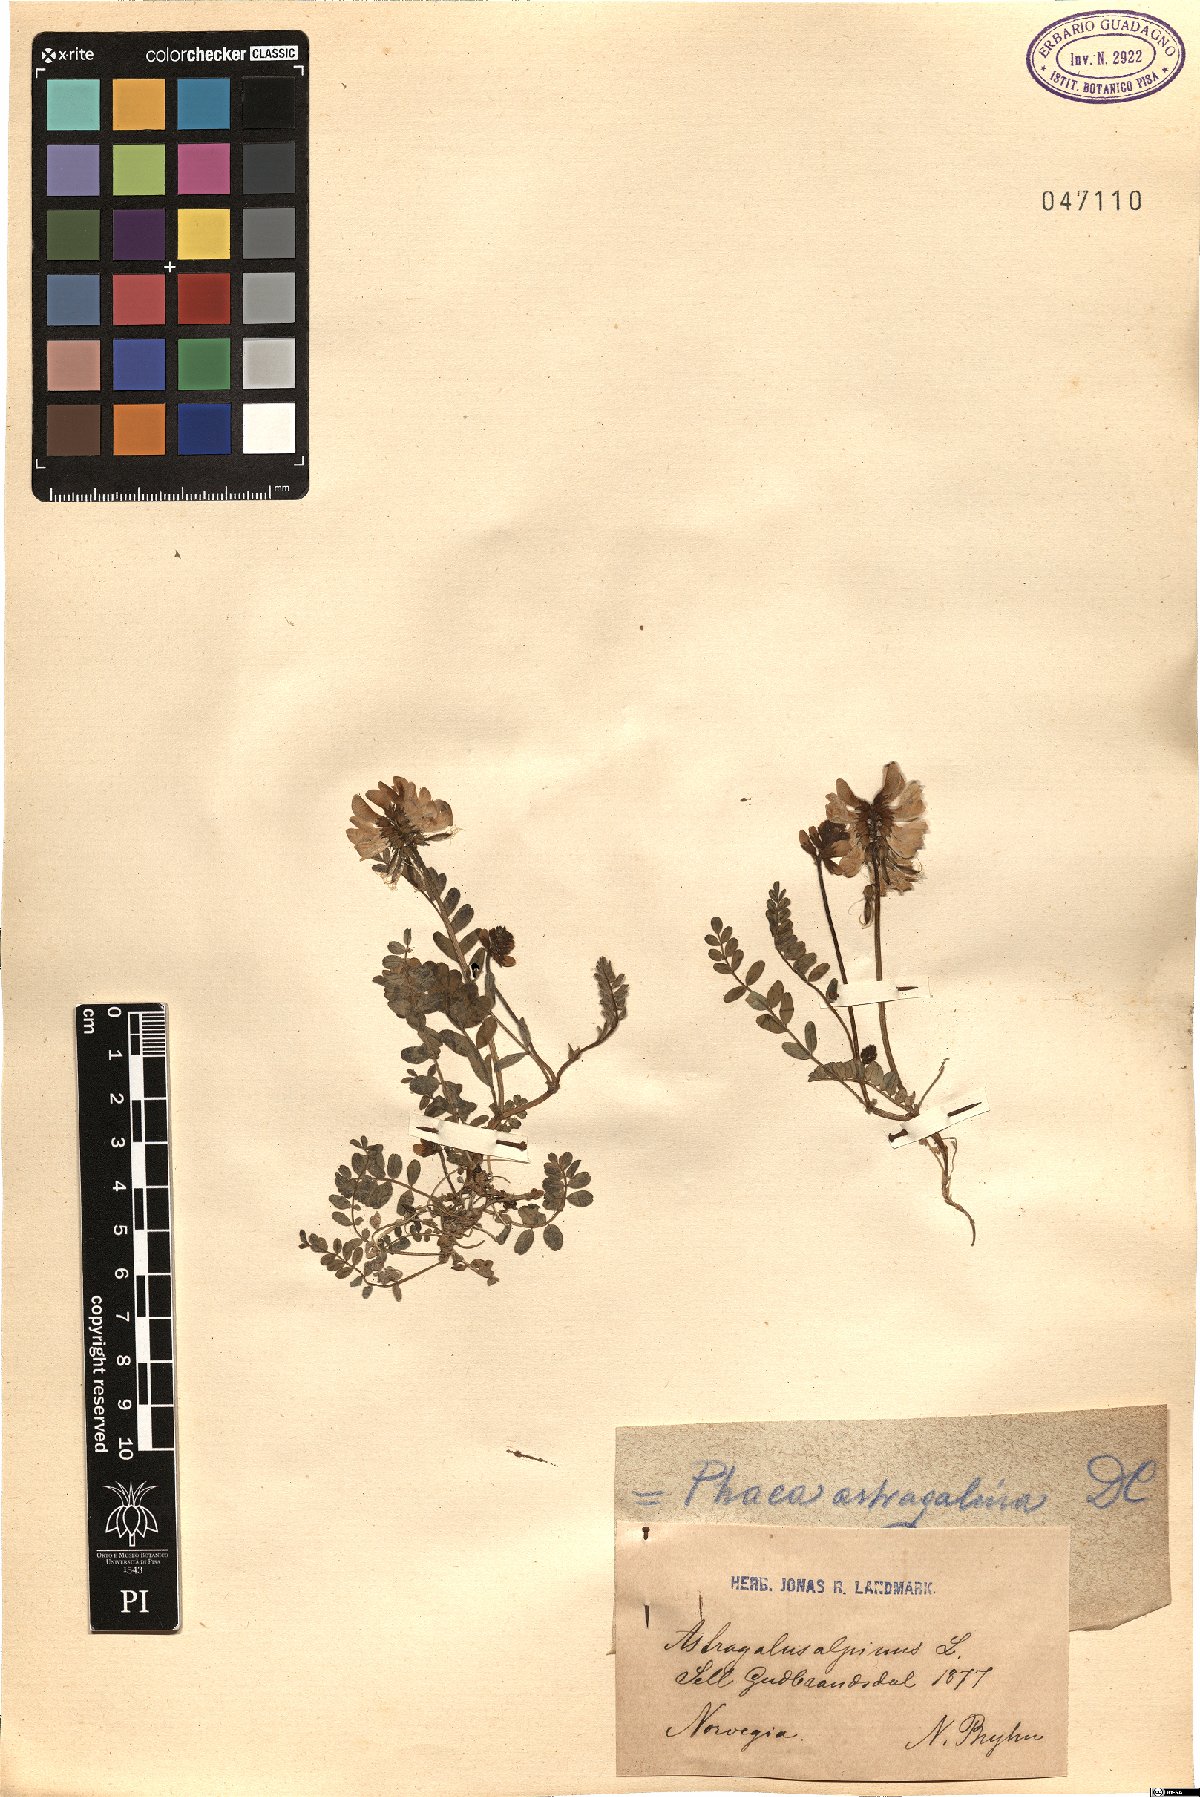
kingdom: Plantae
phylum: Tracheophyta
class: Magnoliopsida
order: Fabales
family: Fabaceae
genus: Astragalus
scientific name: Astragalus alpinus
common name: Alpine milk-vetch
